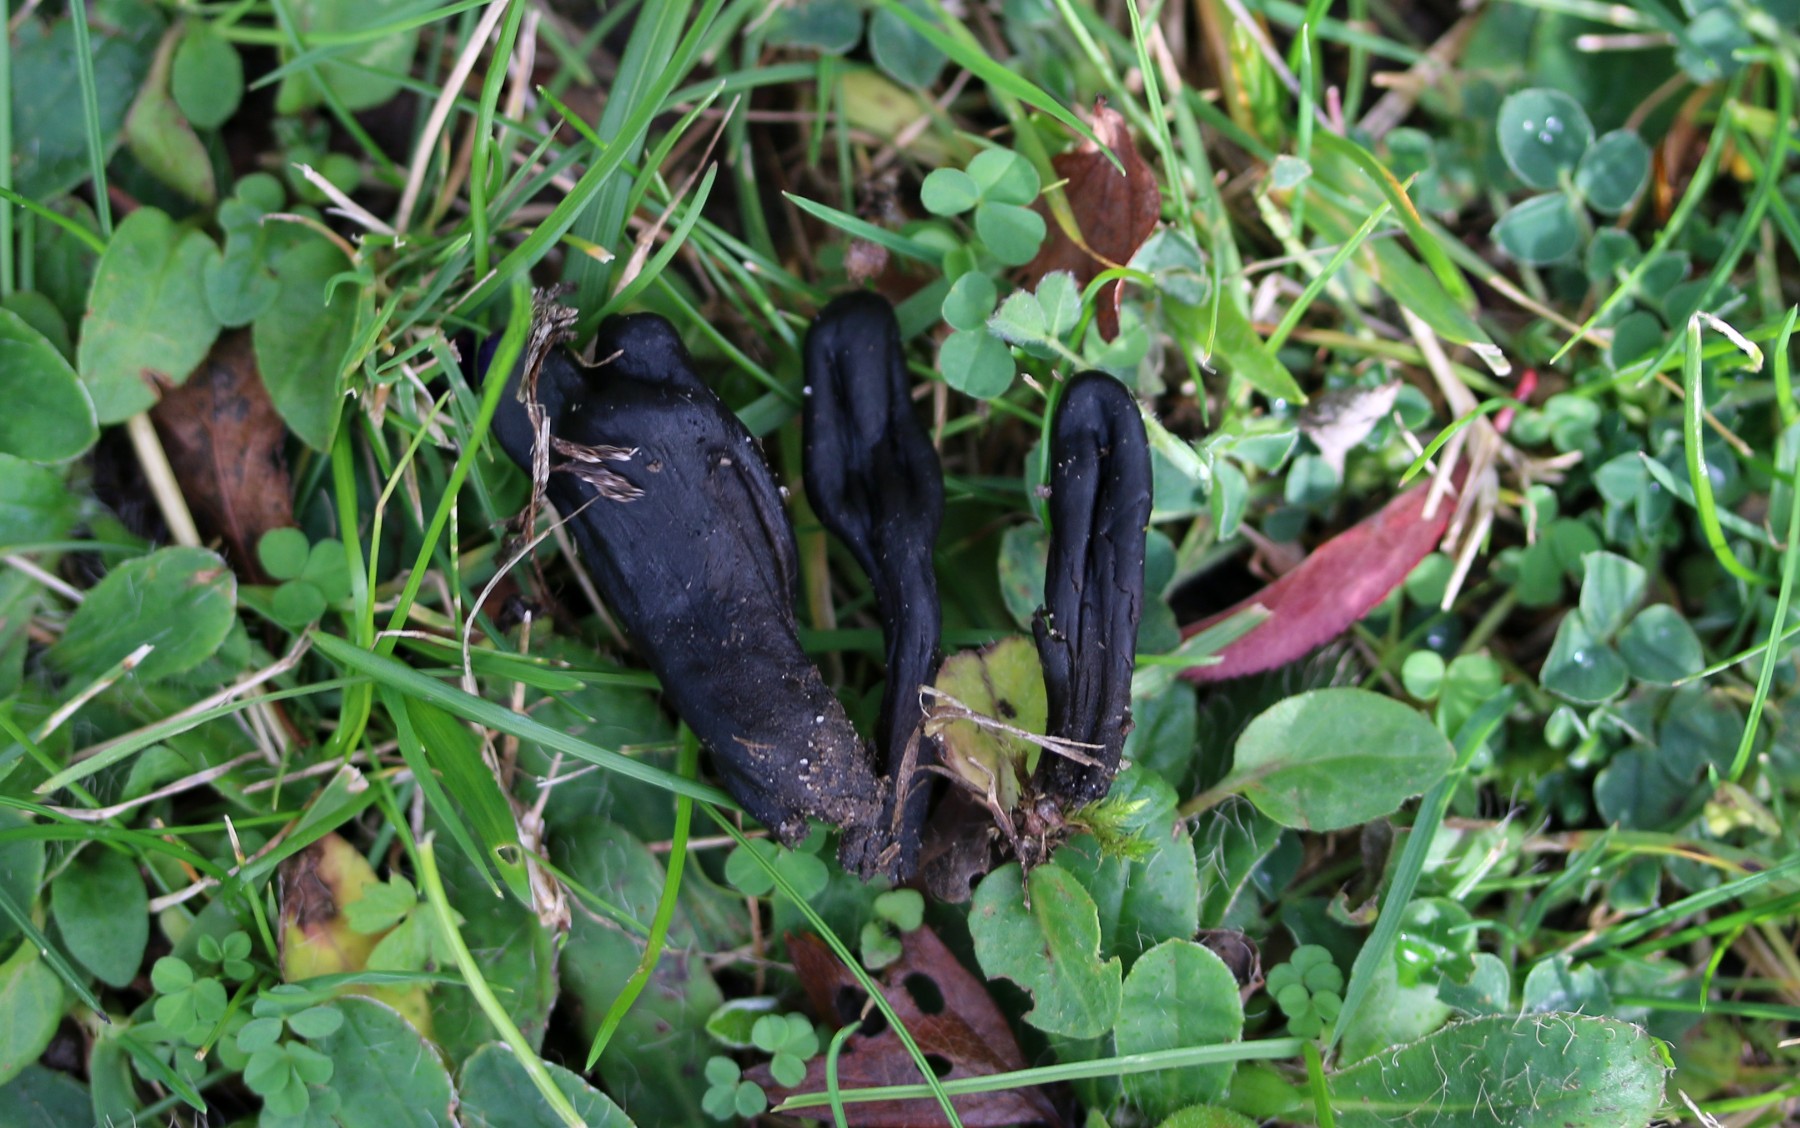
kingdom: Fungi
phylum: Ascomycota
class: Geoglossomycetes
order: Geoglossales
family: Geoglossaceae
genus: Geoglossum
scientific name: Geoglossum cookeianum
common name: bred jordtunge
